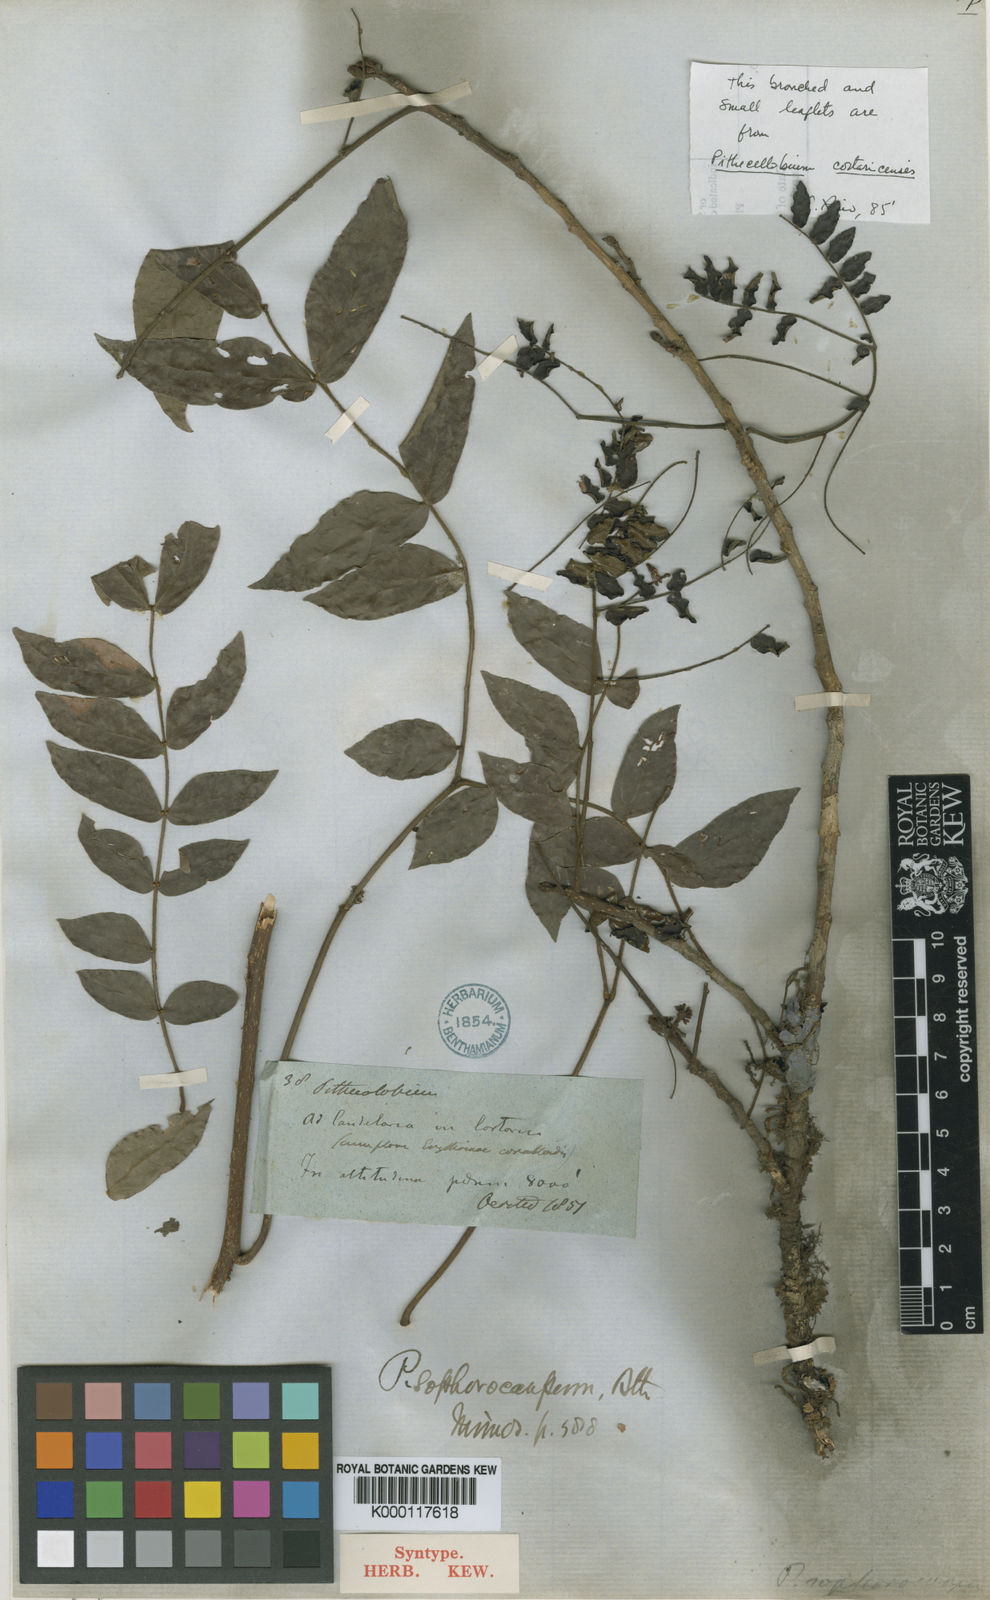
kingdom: Plantae
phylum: Tracheophyta
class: Magnoliopsida
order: Fabales
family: Fabaceae
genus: Cojoba
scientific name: Cojoba sophorocarpa
